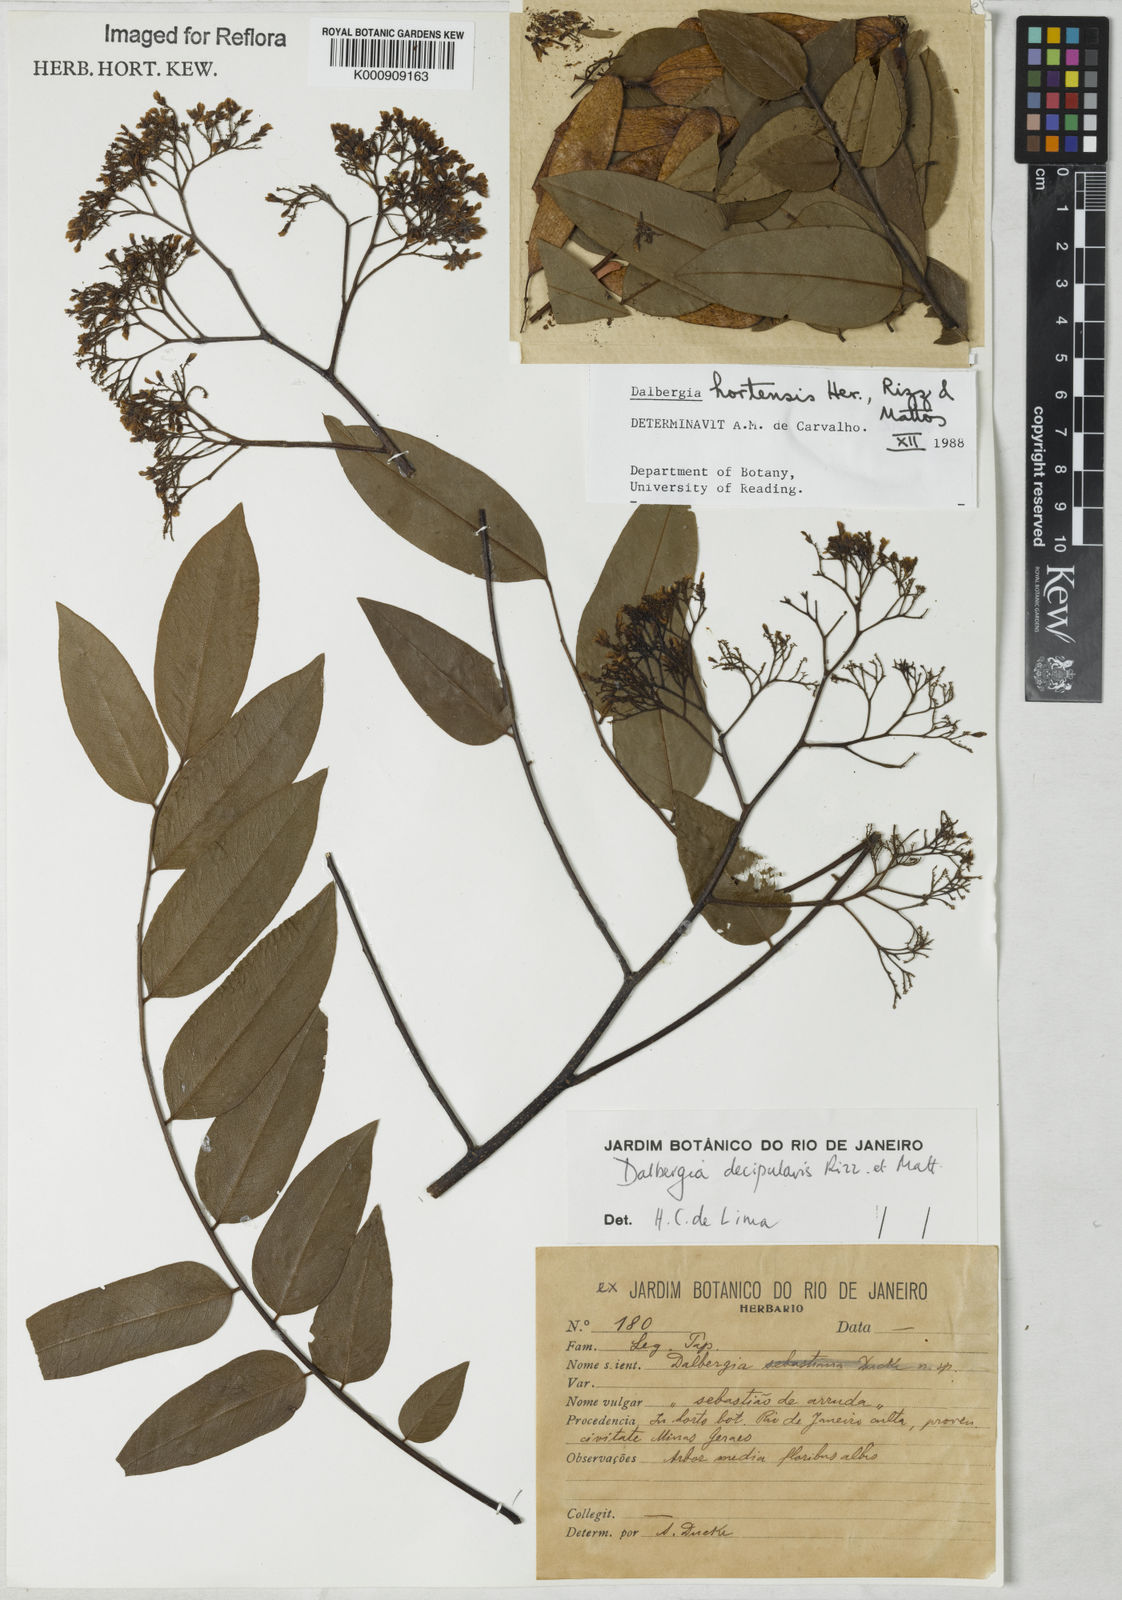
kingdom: Plantae
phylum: Tracheophyta
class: Magnoliopsida
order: Fabales
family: Fabaceae
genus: Dalbergia
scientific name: Dalbergia hortensis
